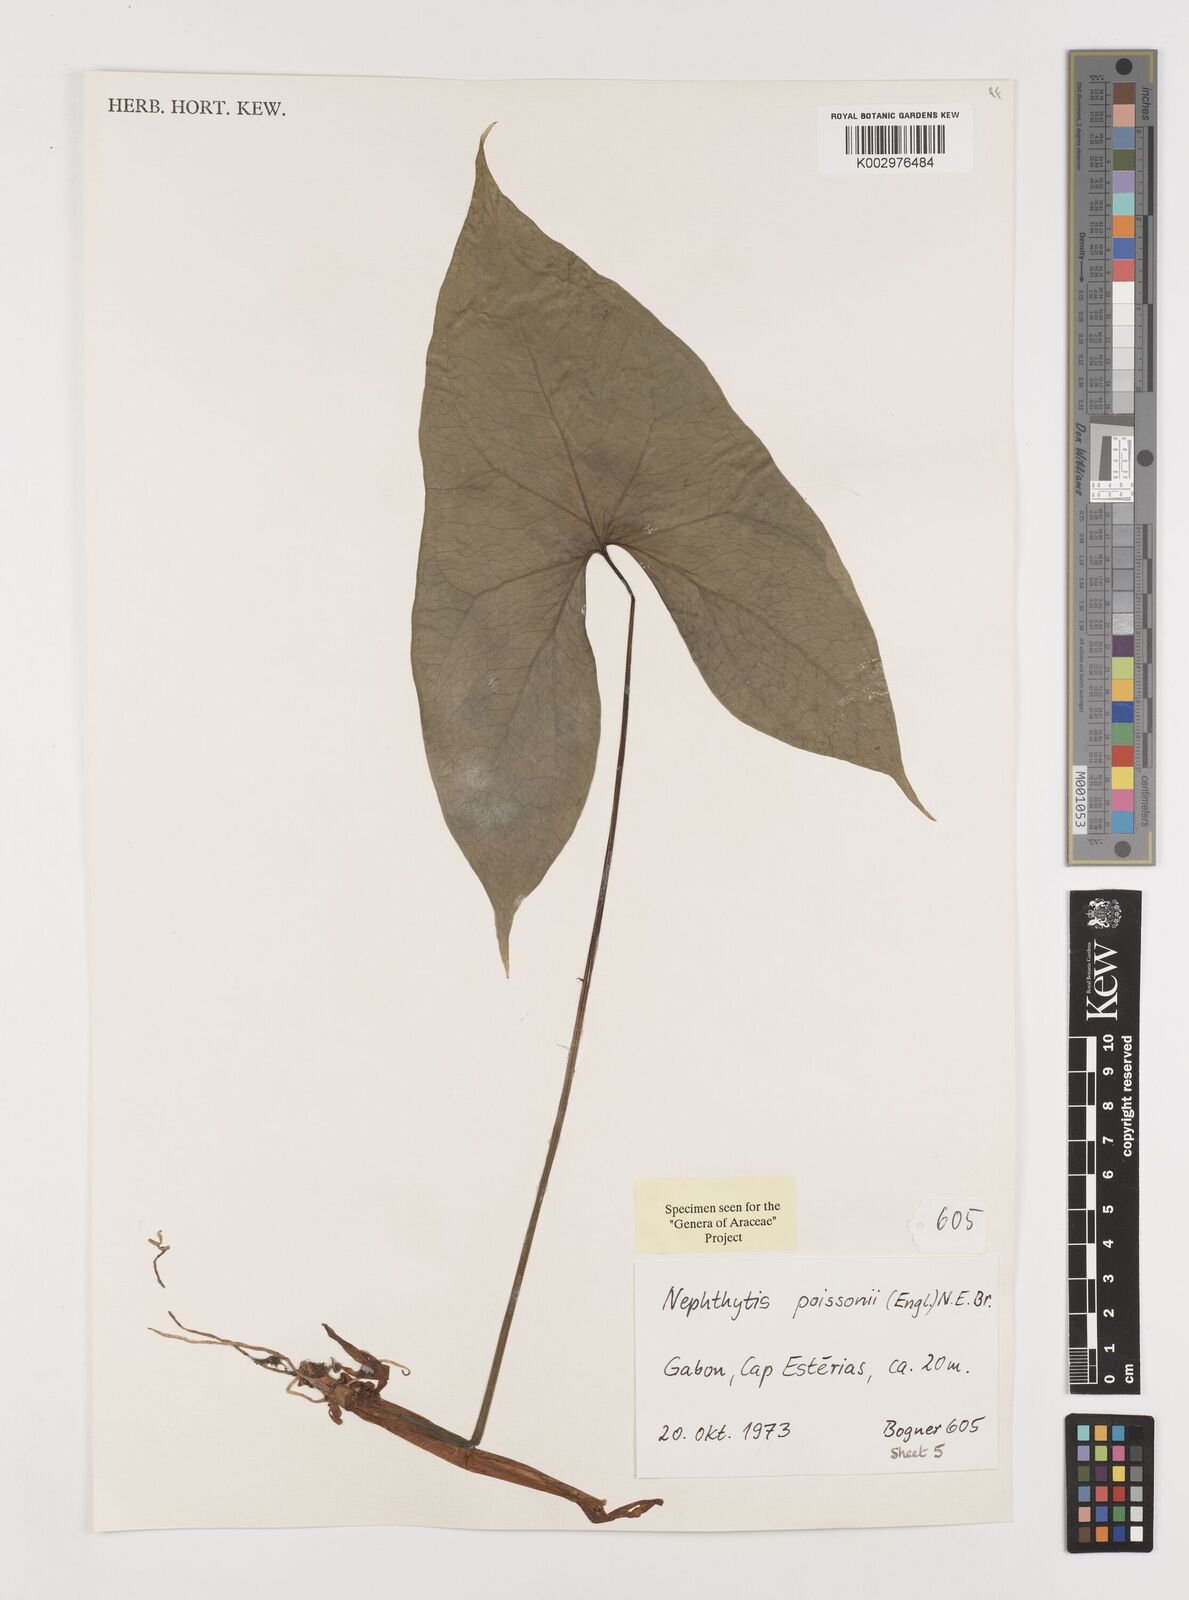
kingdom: Plantae
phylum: Tracheophyta
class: Liliopsida
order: Alismatales
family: Araceae
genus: Nephthytis
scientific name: Nephthytis poissonii
